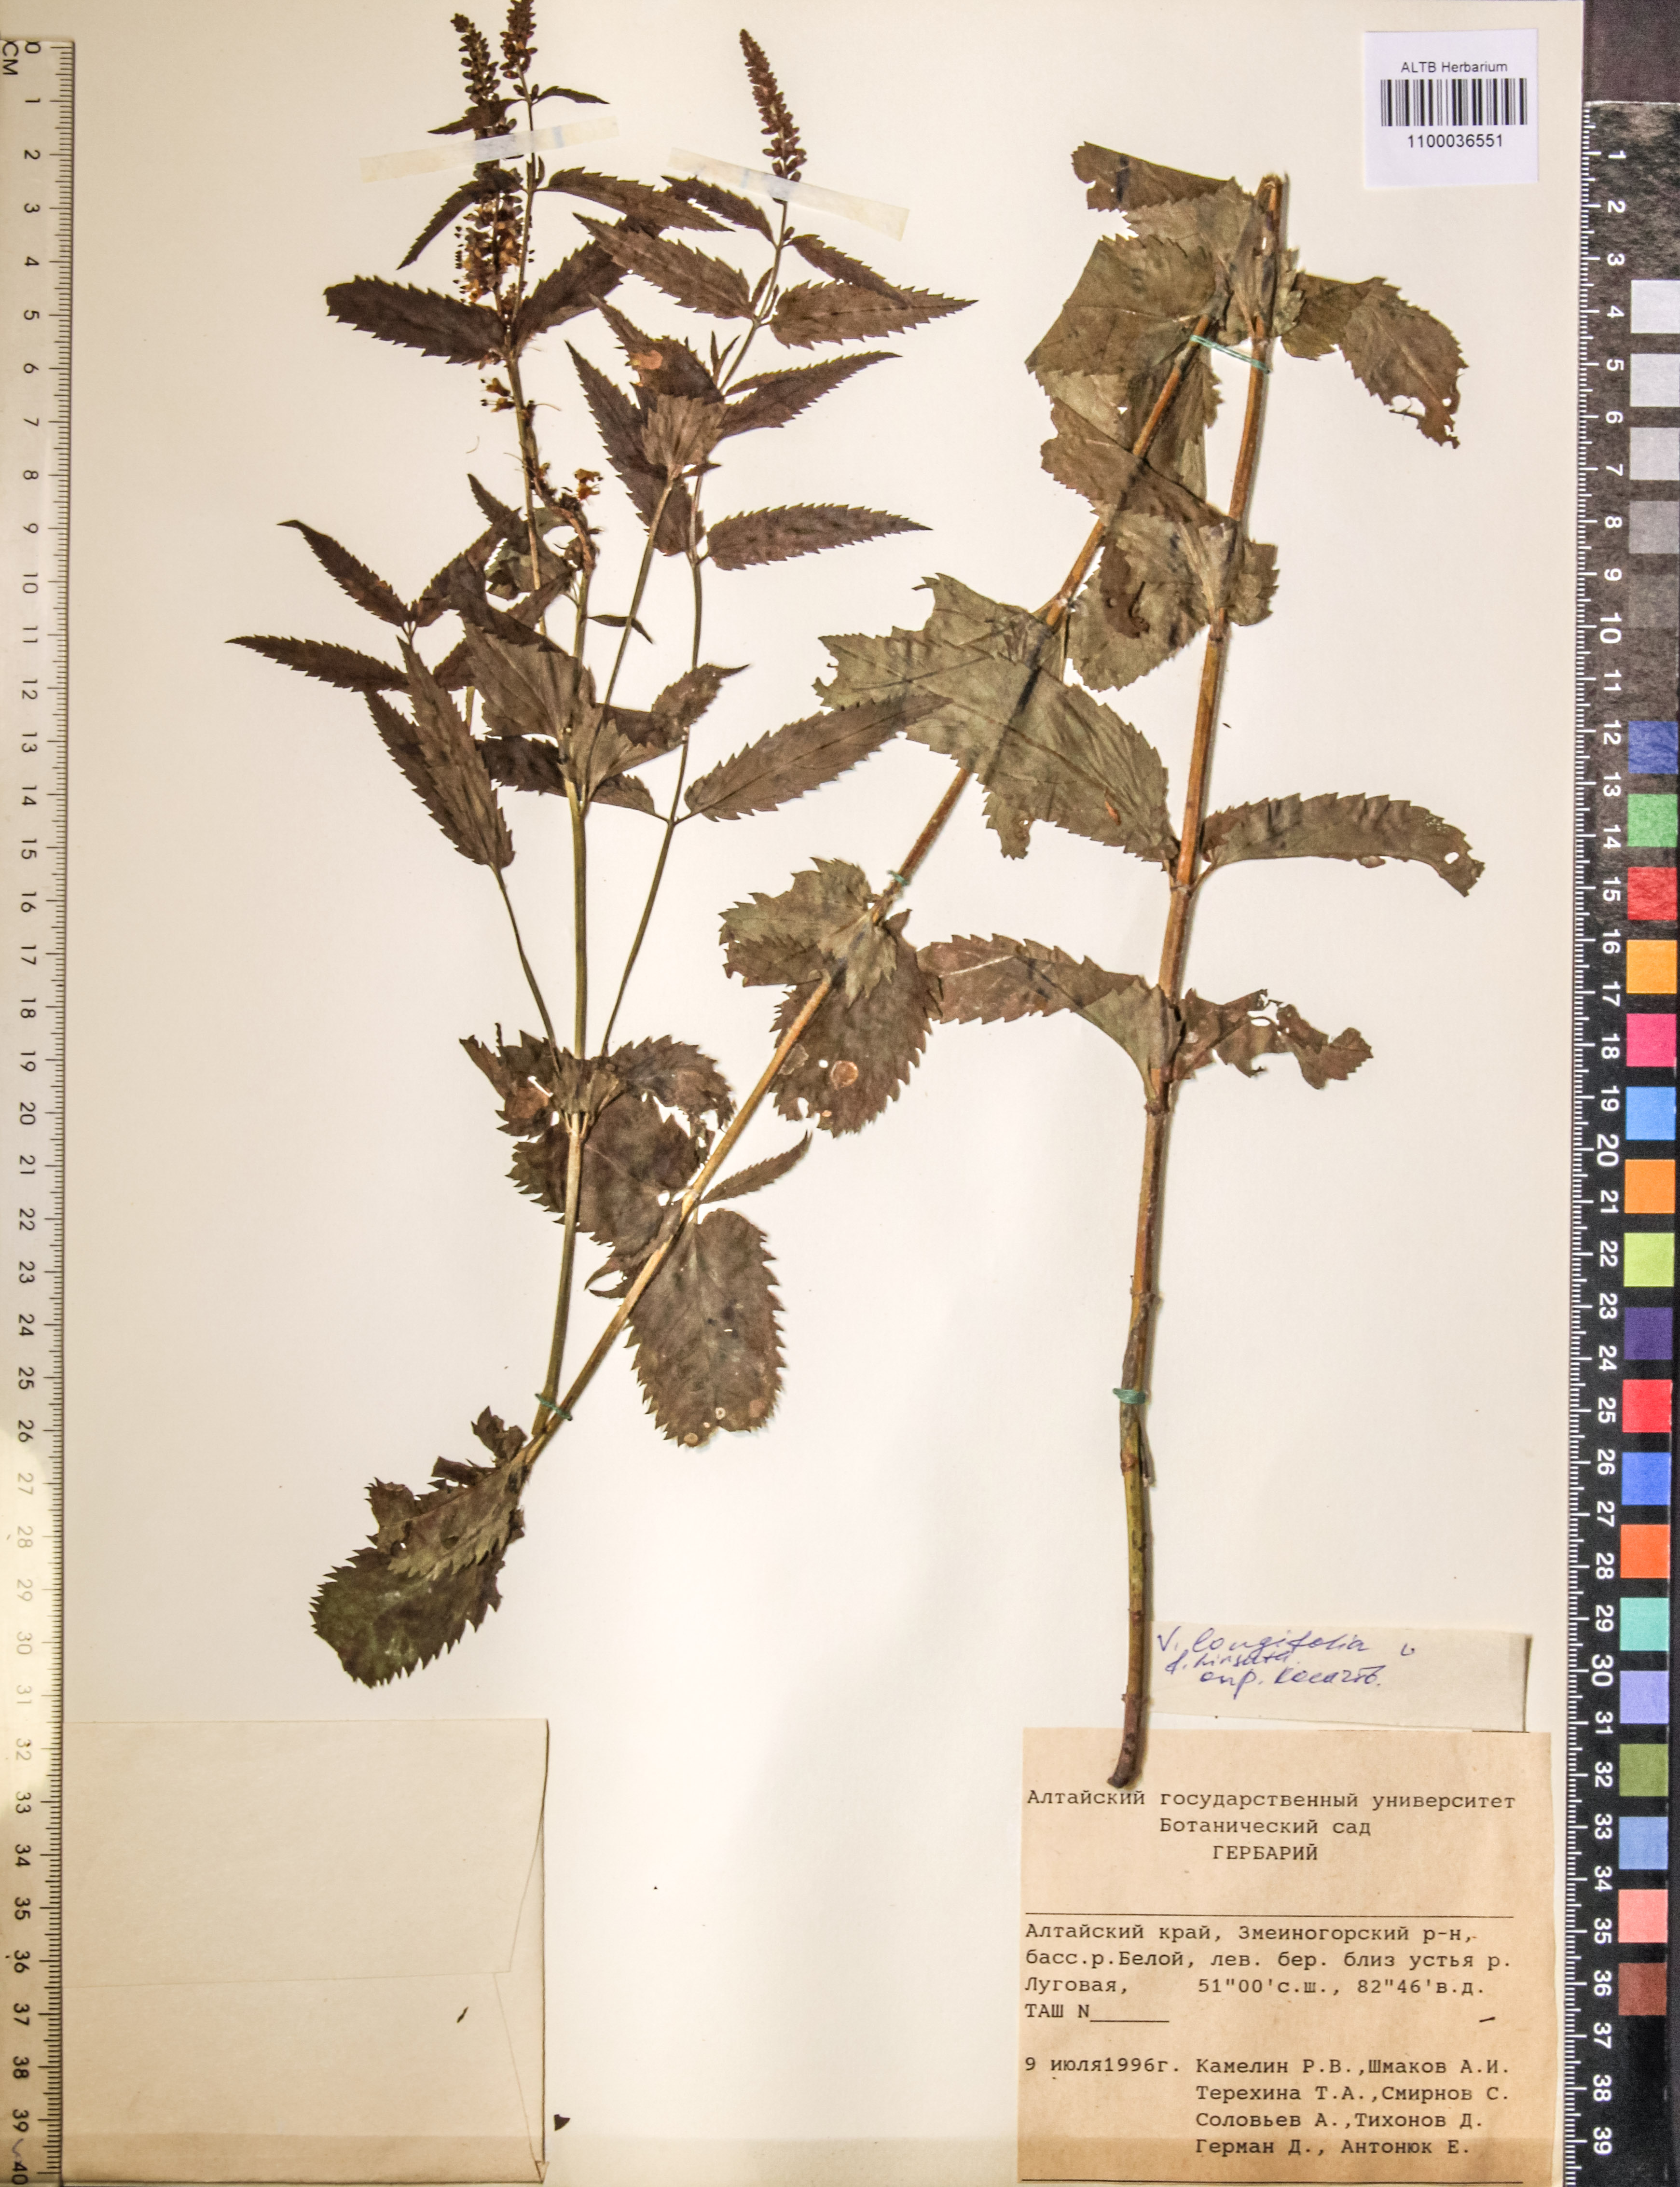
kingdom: Plantae
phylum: Tracheophyta
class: Magnoliopsida
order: Lamiales
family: Plantaginaceae
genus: Veronica
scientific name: Veronica longifolia
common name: Garden speedwell
